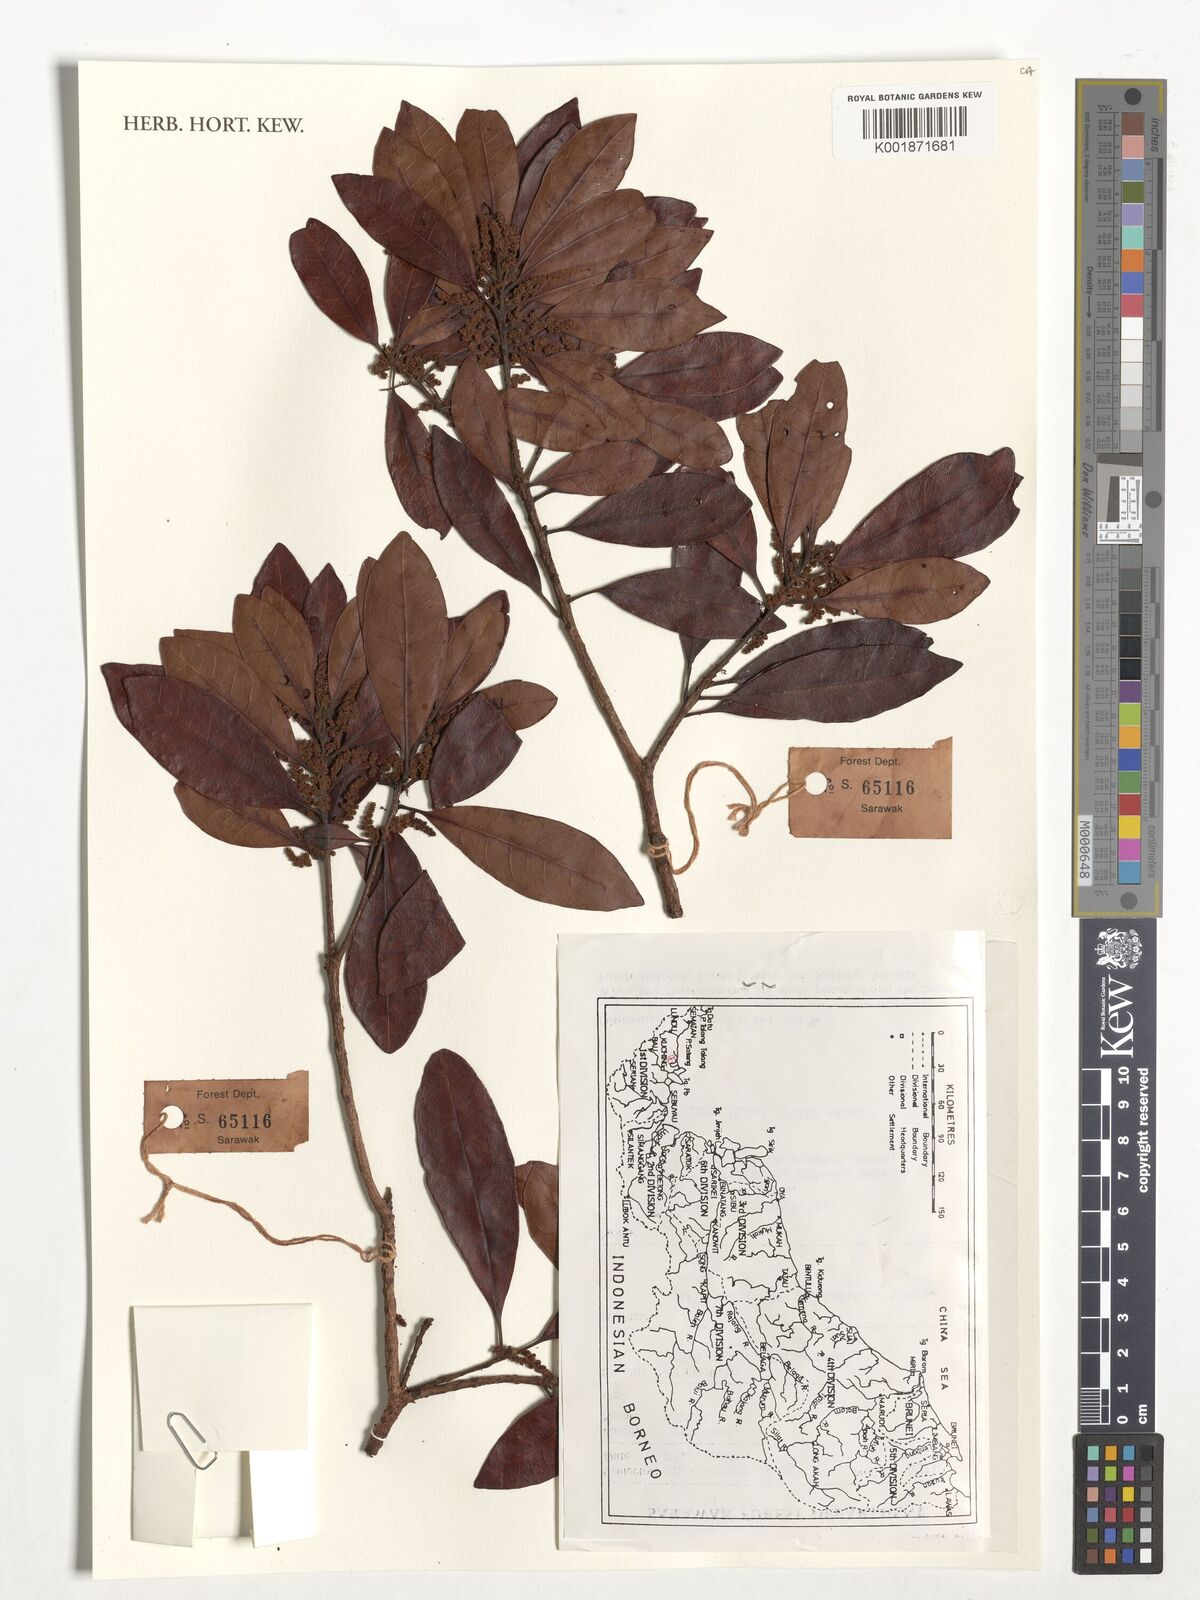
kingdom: Plantae
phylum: Tracheophyta
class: Magnoliopsida
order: Fagales
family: Myricaceae
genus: Myrica
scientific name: Myrica
